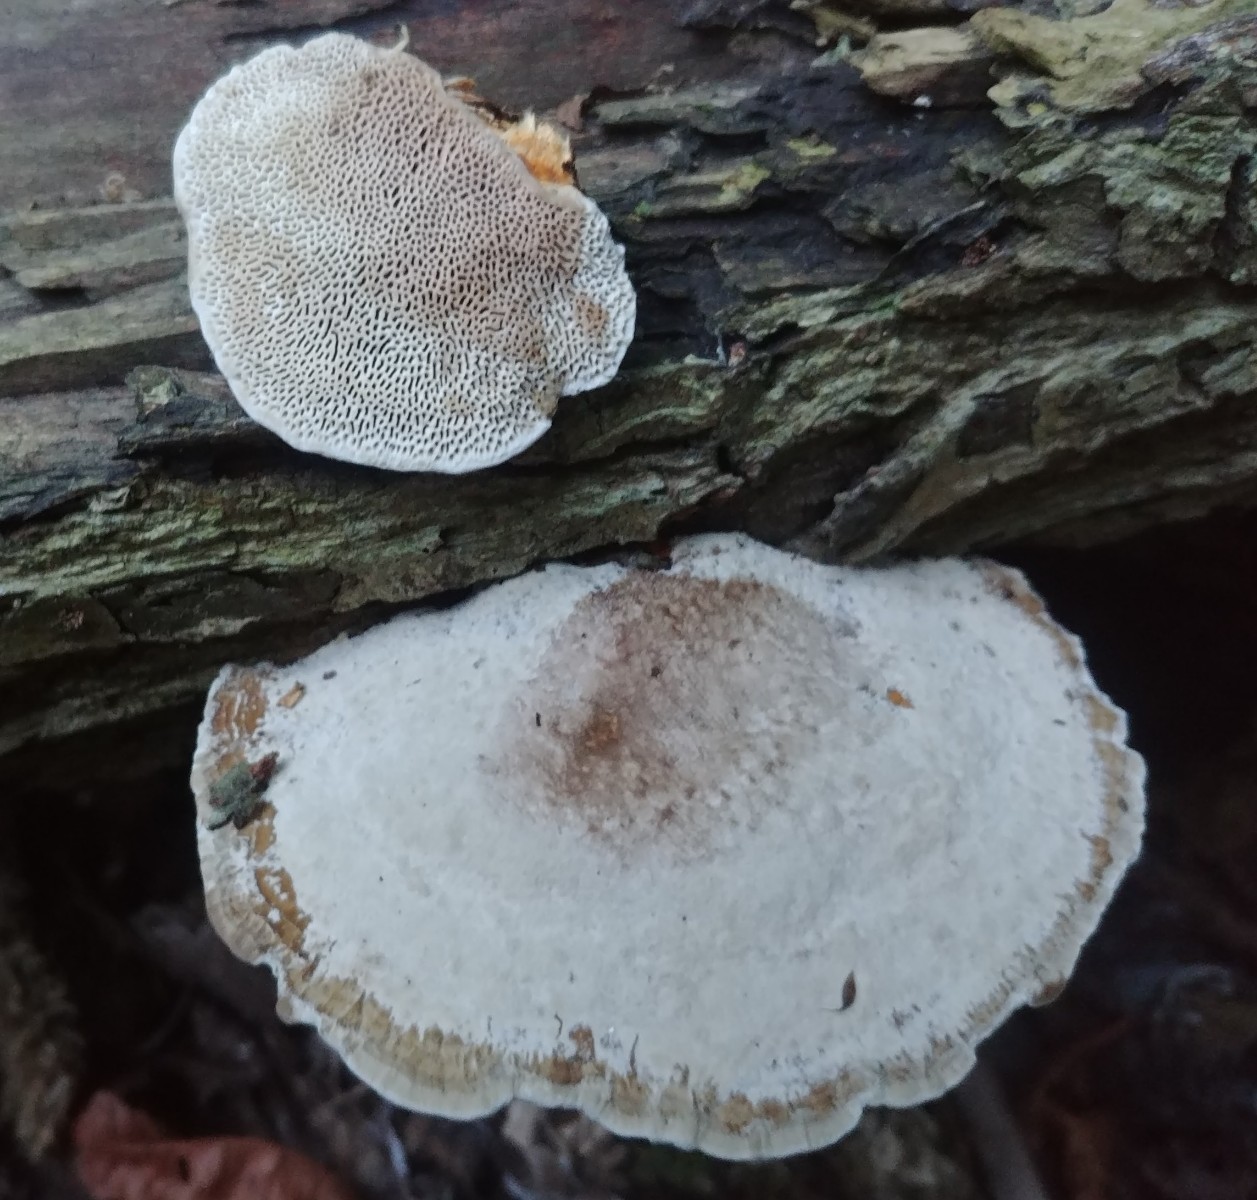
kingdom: Fungi
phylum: Basidiomycota
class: Agaricomycetes
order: Polyporales
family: Polyporaceae
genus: Daedaleopsis
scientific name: Daedaleopsis confragosa
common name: rødmende læderporesvamp
